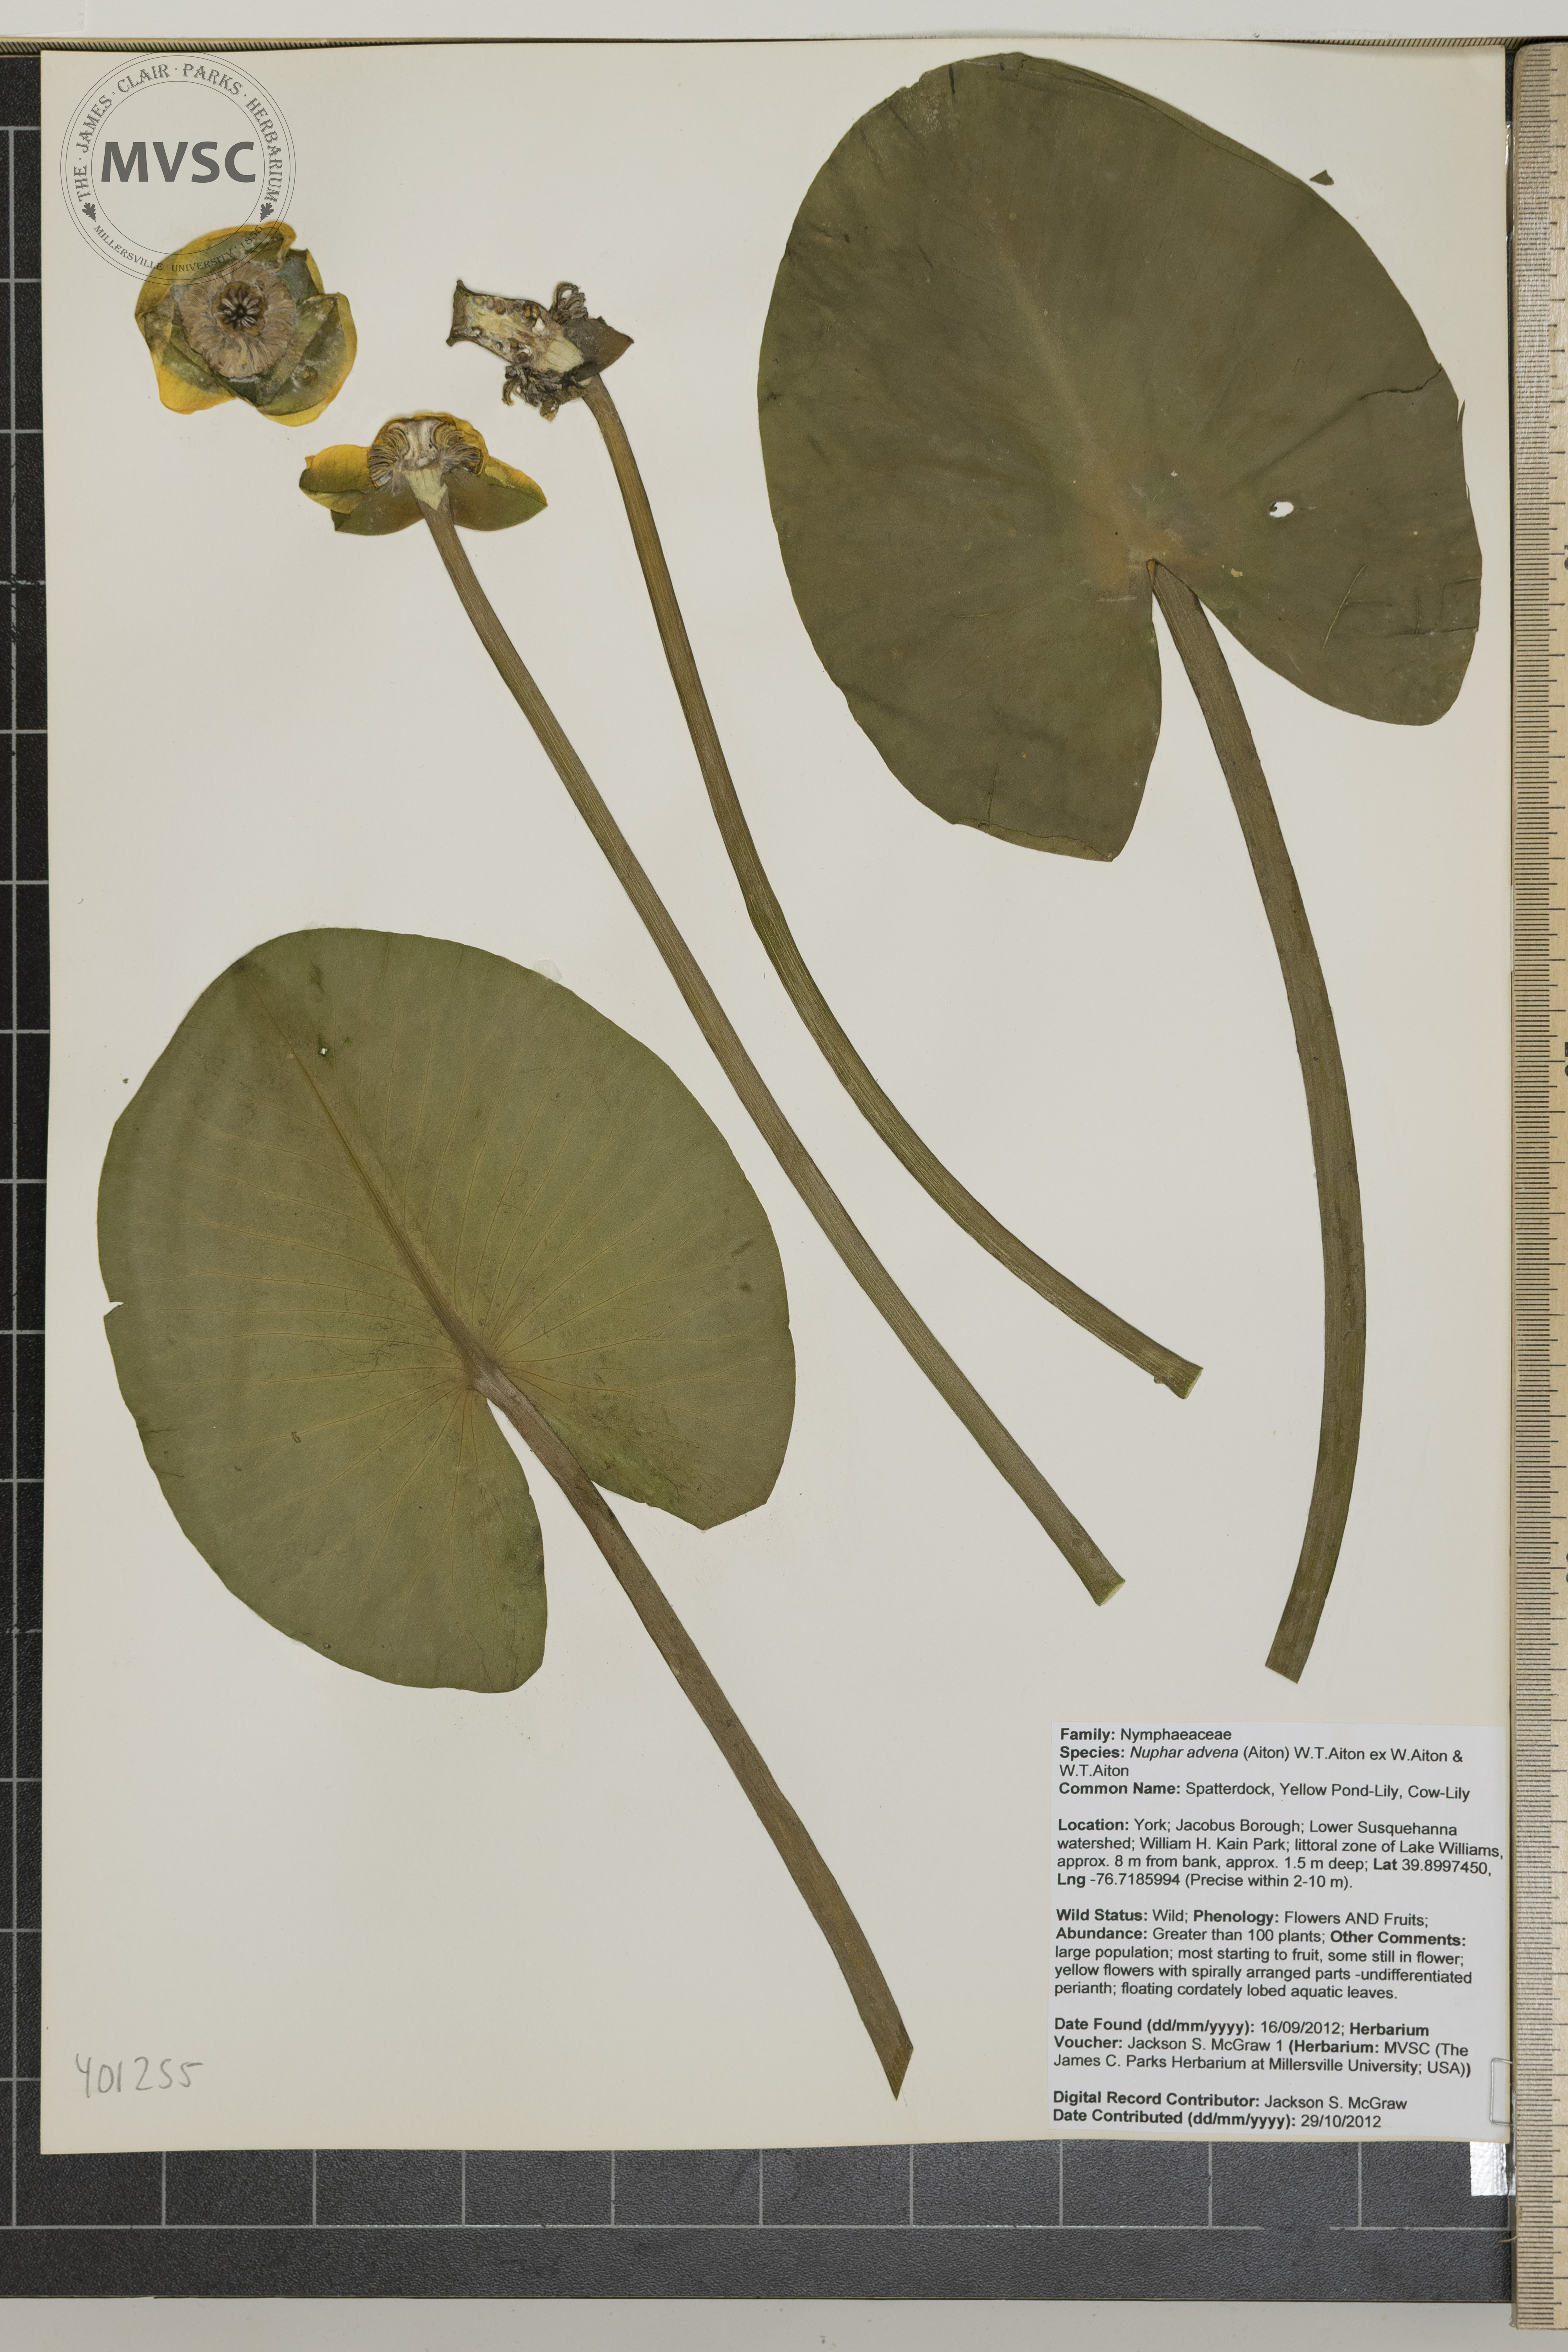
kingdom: Plantae
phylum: Tracheophyta
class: Magnoliopsida
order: Nymphaeales
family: Nymphaeaceae
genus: Nuphar
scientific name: Nuphar advena
